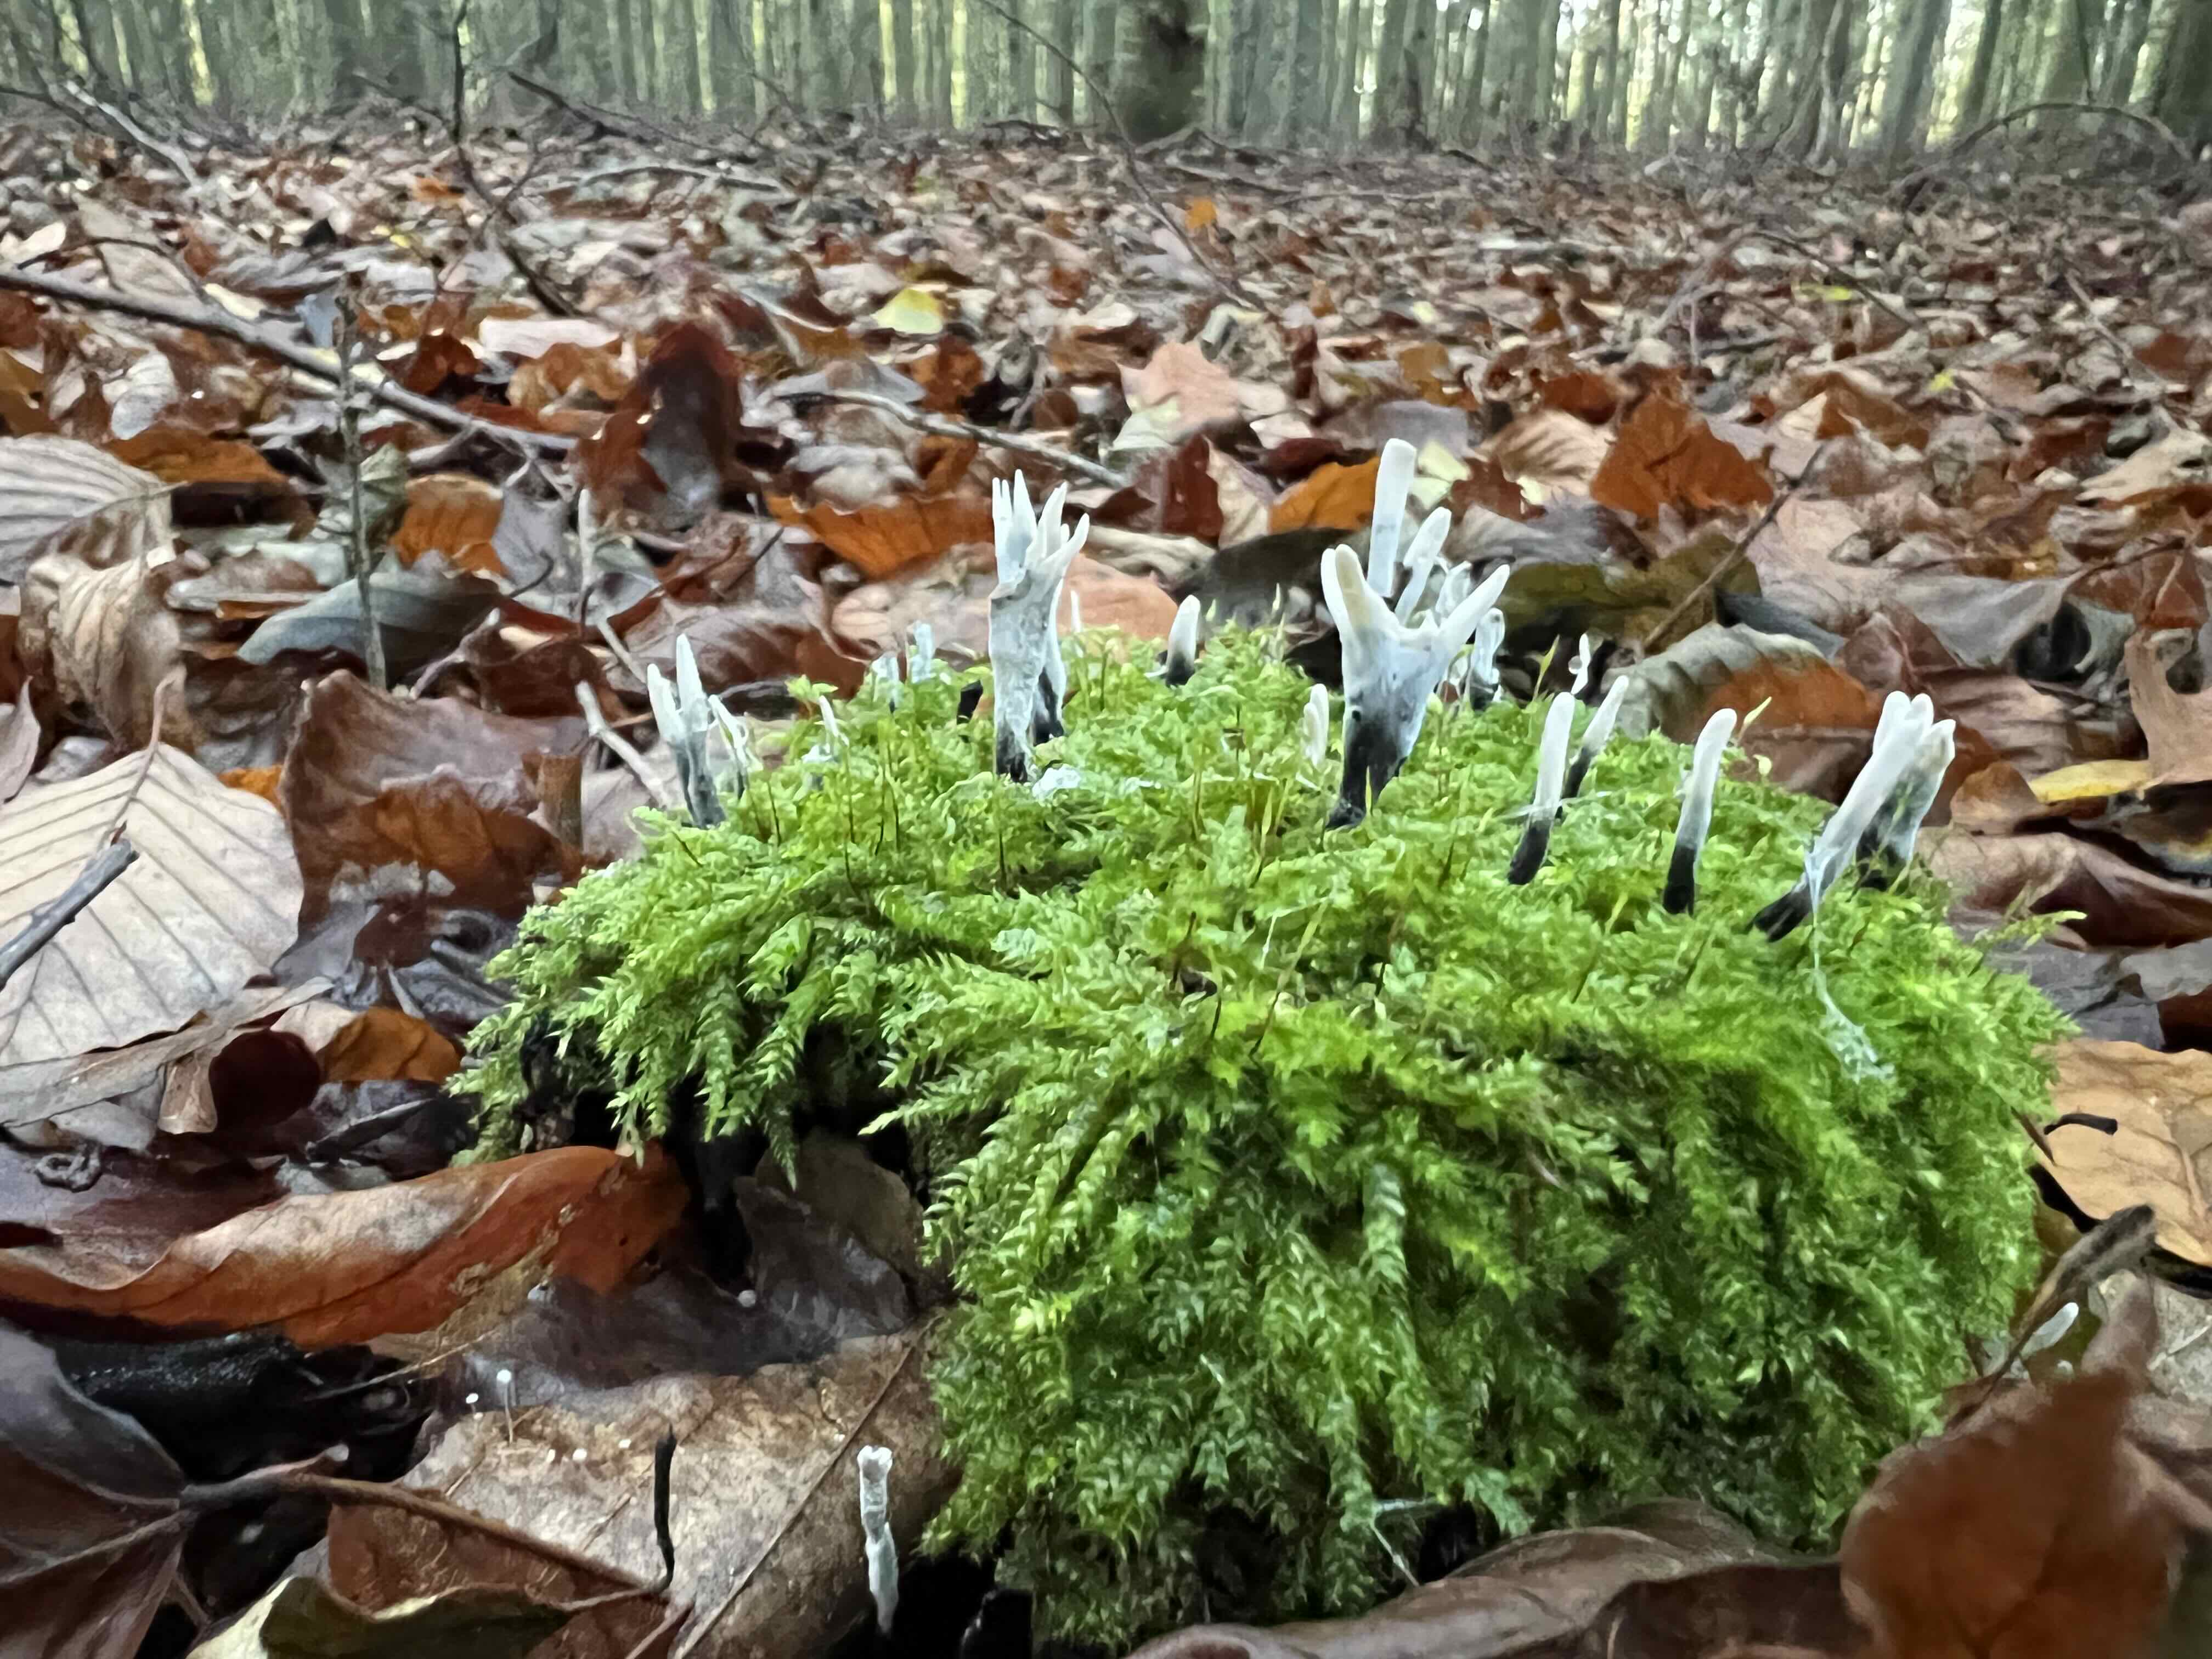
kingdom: Fungi
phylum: Ascomycota
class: Sordariomycetes
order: Xylariales
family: Xylariaceae
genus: Xylaria
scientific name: Xylaria hypoxylon
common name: grenet stødsvamp
